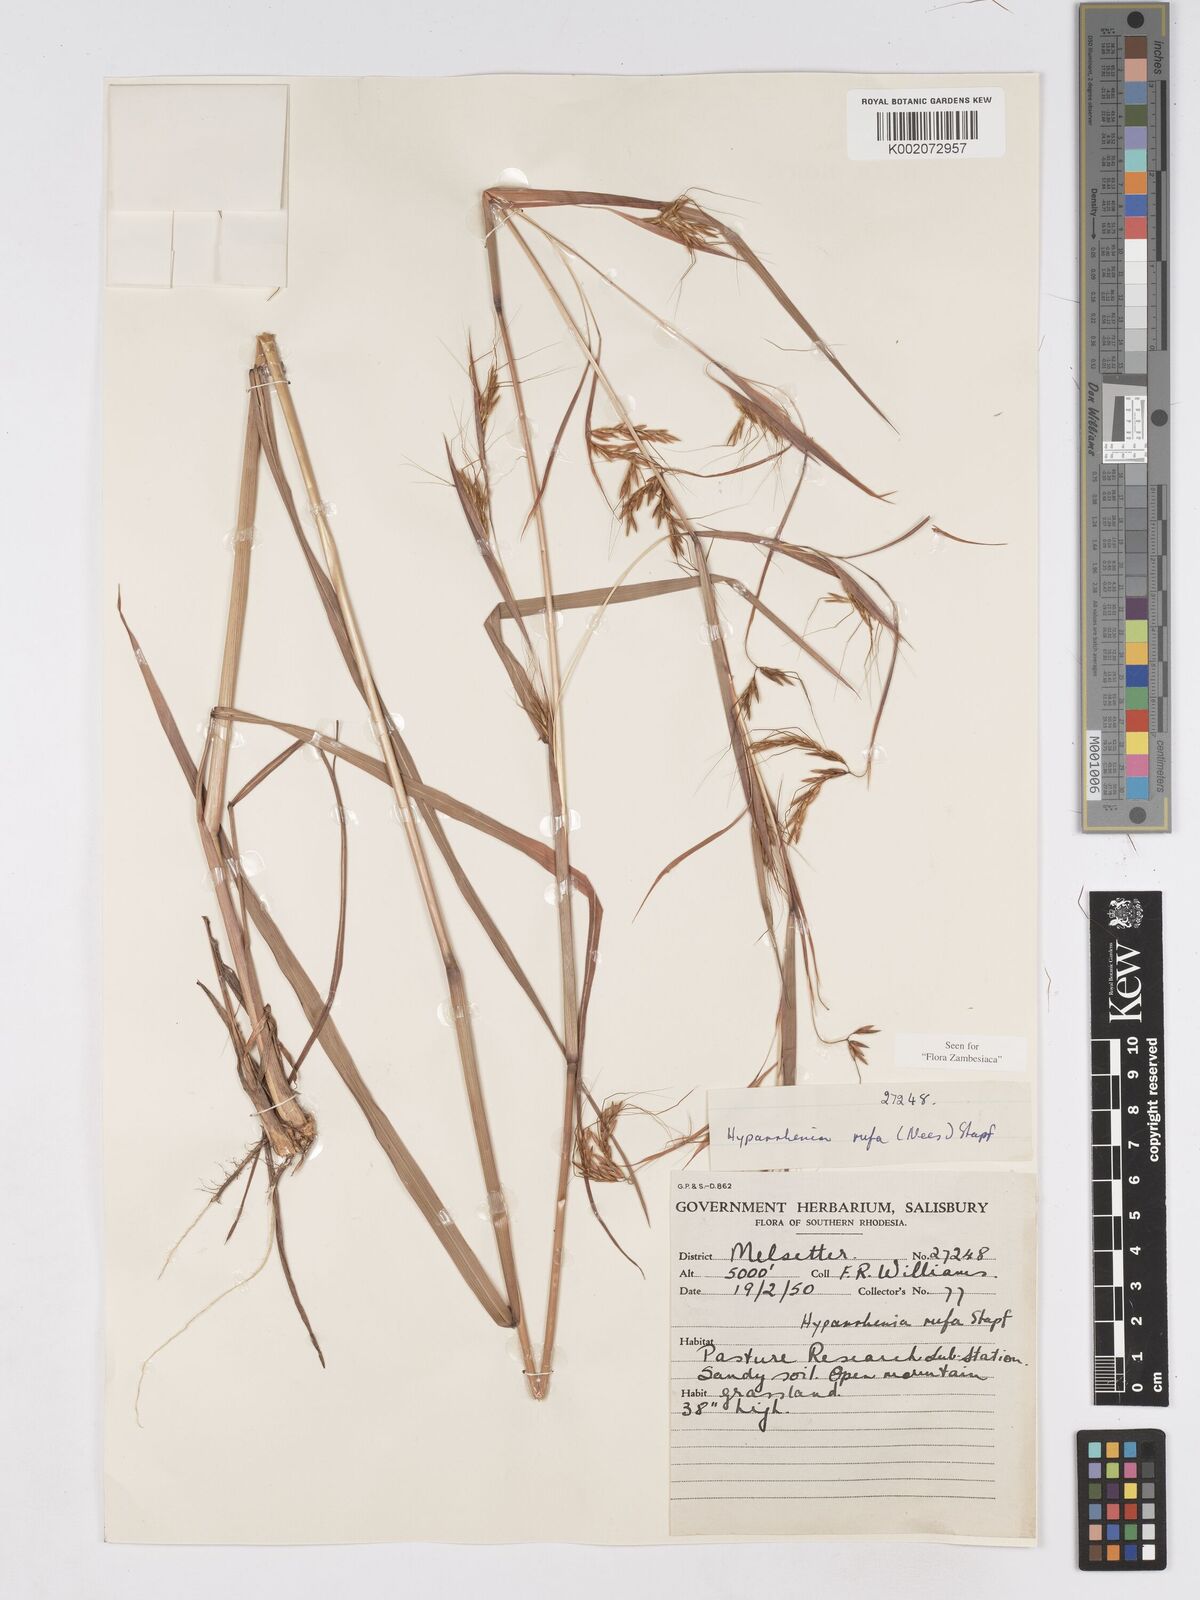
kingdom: Plantae
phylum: Tracheophyta
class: Liliopsida
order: Poales
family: Poaceae
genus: Hyparrhenia
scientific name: Hyparrhenia rufa
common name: Jaraguagrass
